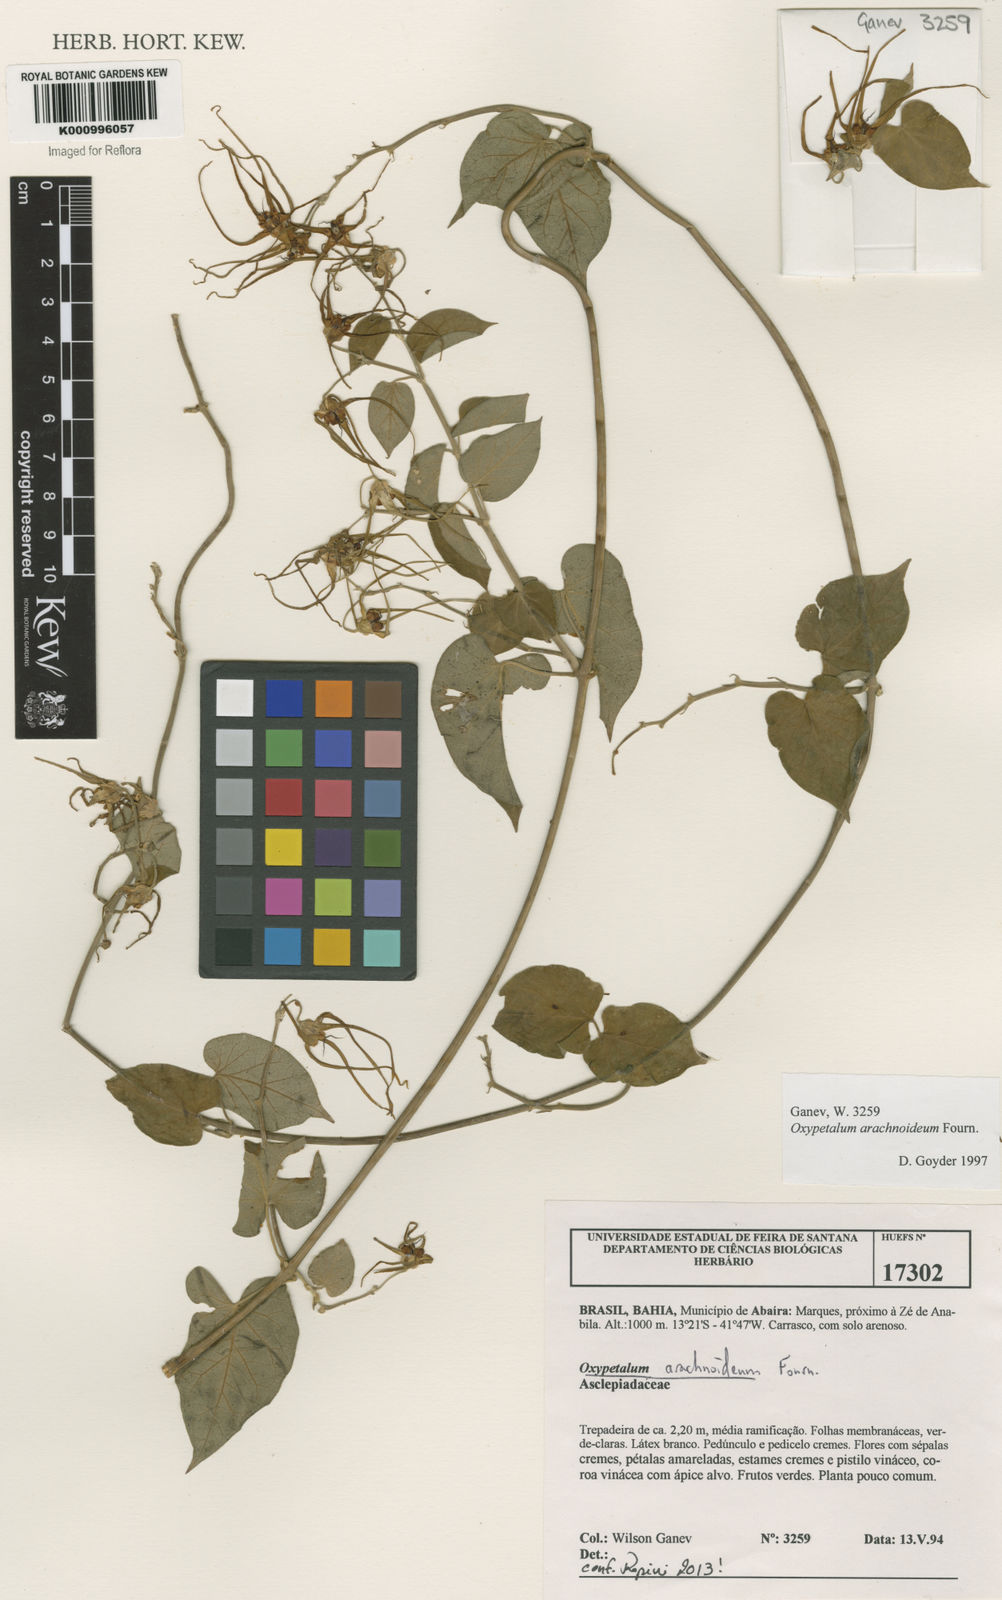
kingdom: Plantae
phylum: Tracheophyta
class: Magnoliopsida
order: Gentianales
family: Apocynaceae
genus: Oxypetalum
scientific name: Oxypetalum arachnoideum
